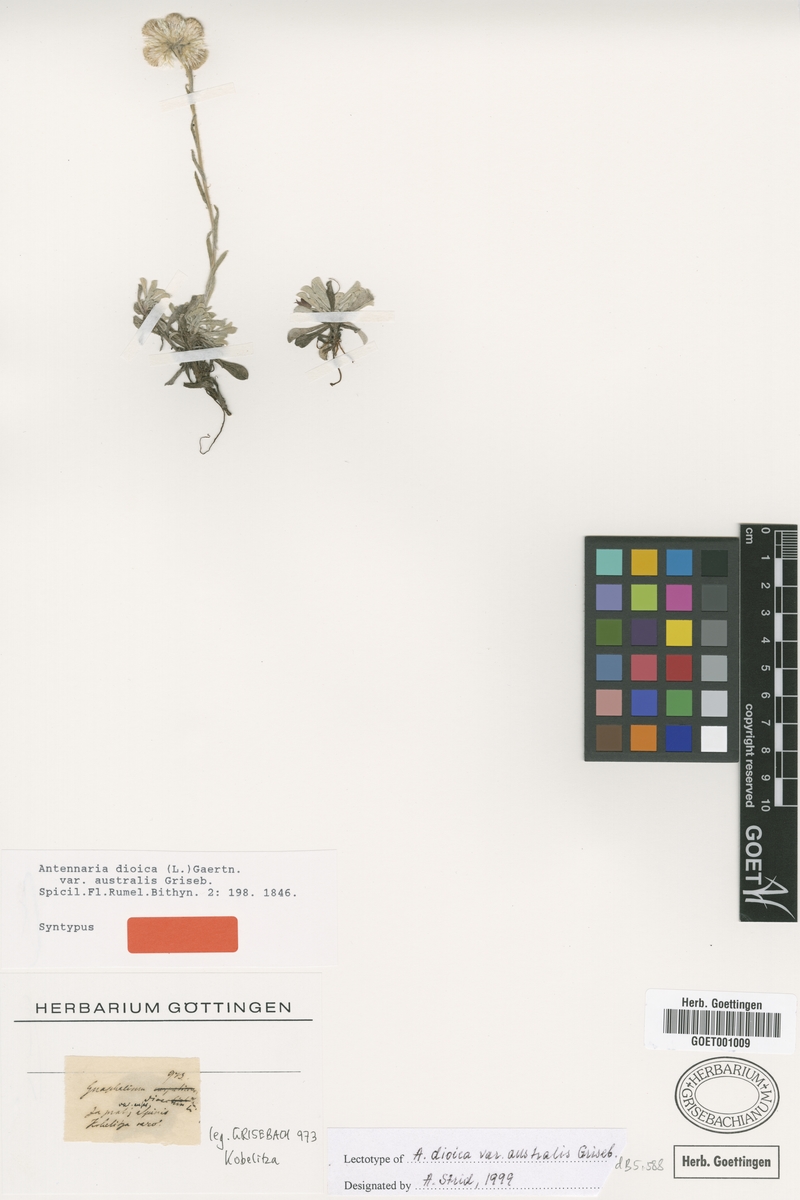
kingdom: Plantae
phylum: Tracheophyta
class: Magnoliopsida
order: Asterales
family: Asteraceae
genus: Antennaria
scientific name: Antennaria dioica
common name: Mountain everlasting
